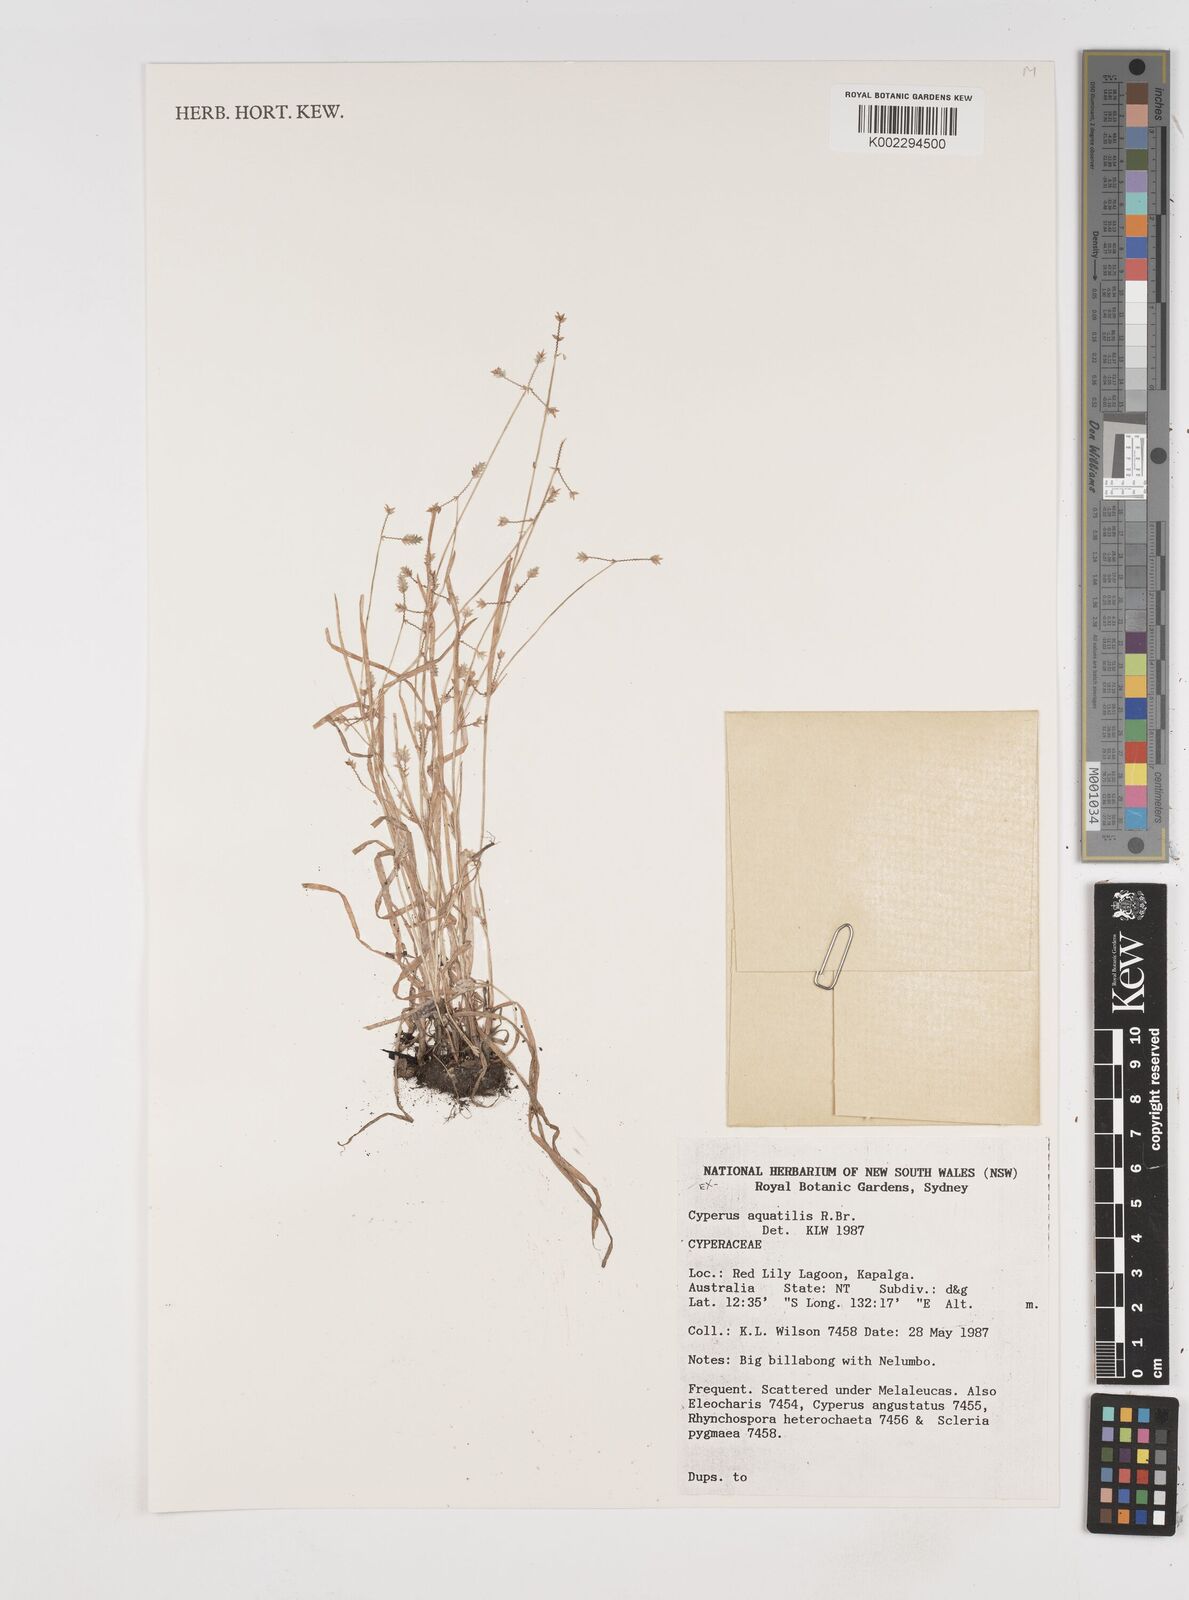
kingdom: Plantae
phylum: Tracheophyta
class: Liliopsida
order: Poales
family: Cyperaceae
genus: Cyperus
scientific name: Cyperus rigidellus
